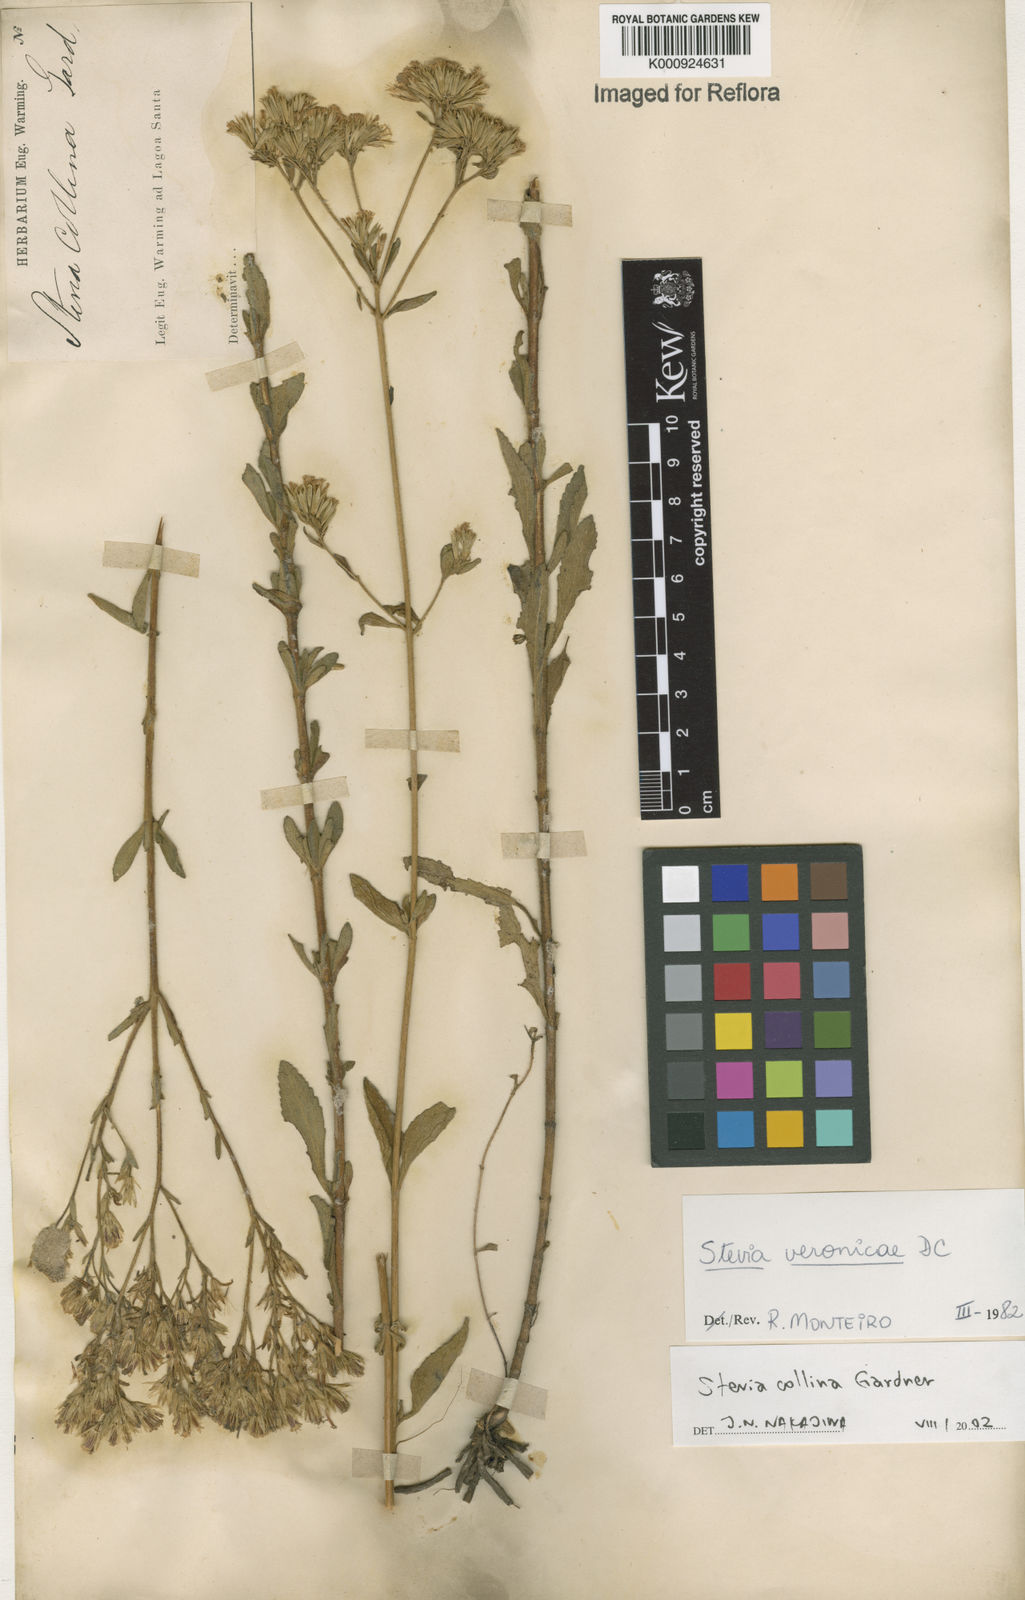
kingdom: Plantae
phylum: Tracheophyta
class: Magnoliopsida
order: Asterales
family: Asteraceae
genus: Stevia
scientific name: Stevia collina
